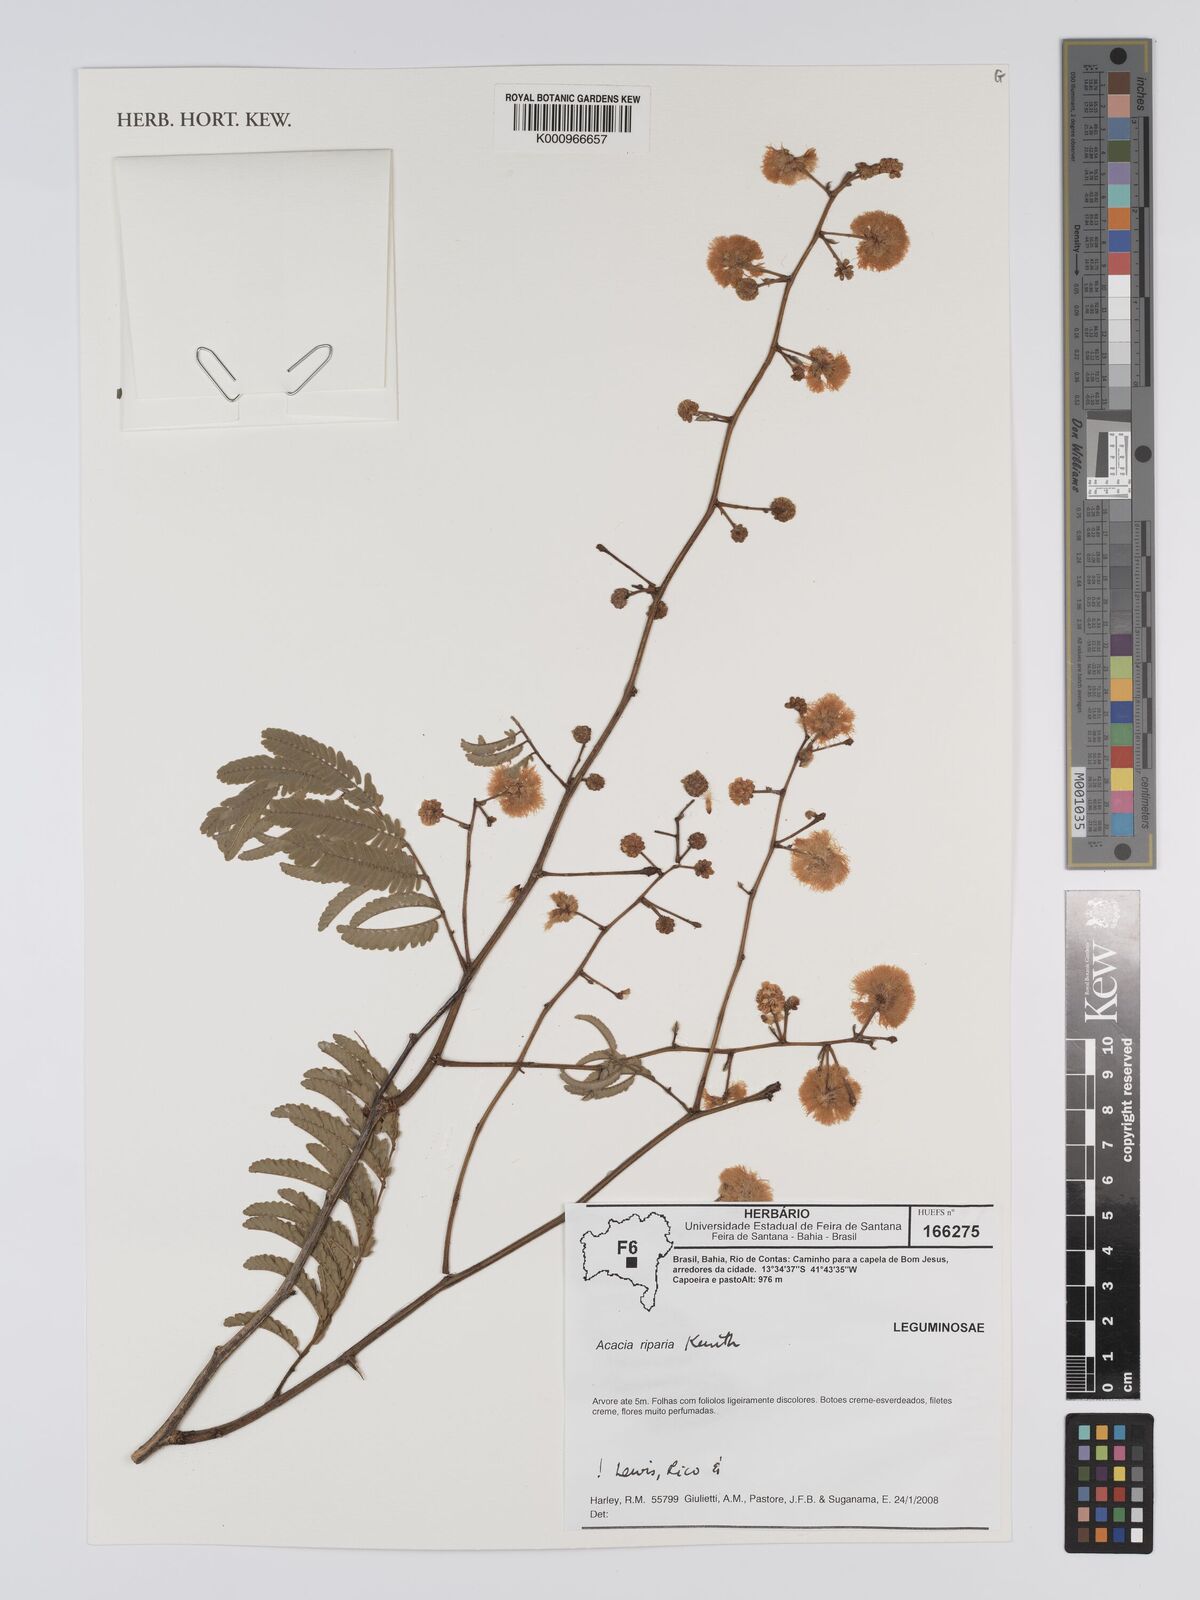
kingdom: Plantae
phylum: Tracheophyta
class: Magnoliopsida
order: Fabales
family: Fabaceae
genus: Senegalia
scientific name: Senegalia riparia
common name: Catch-and-keep
